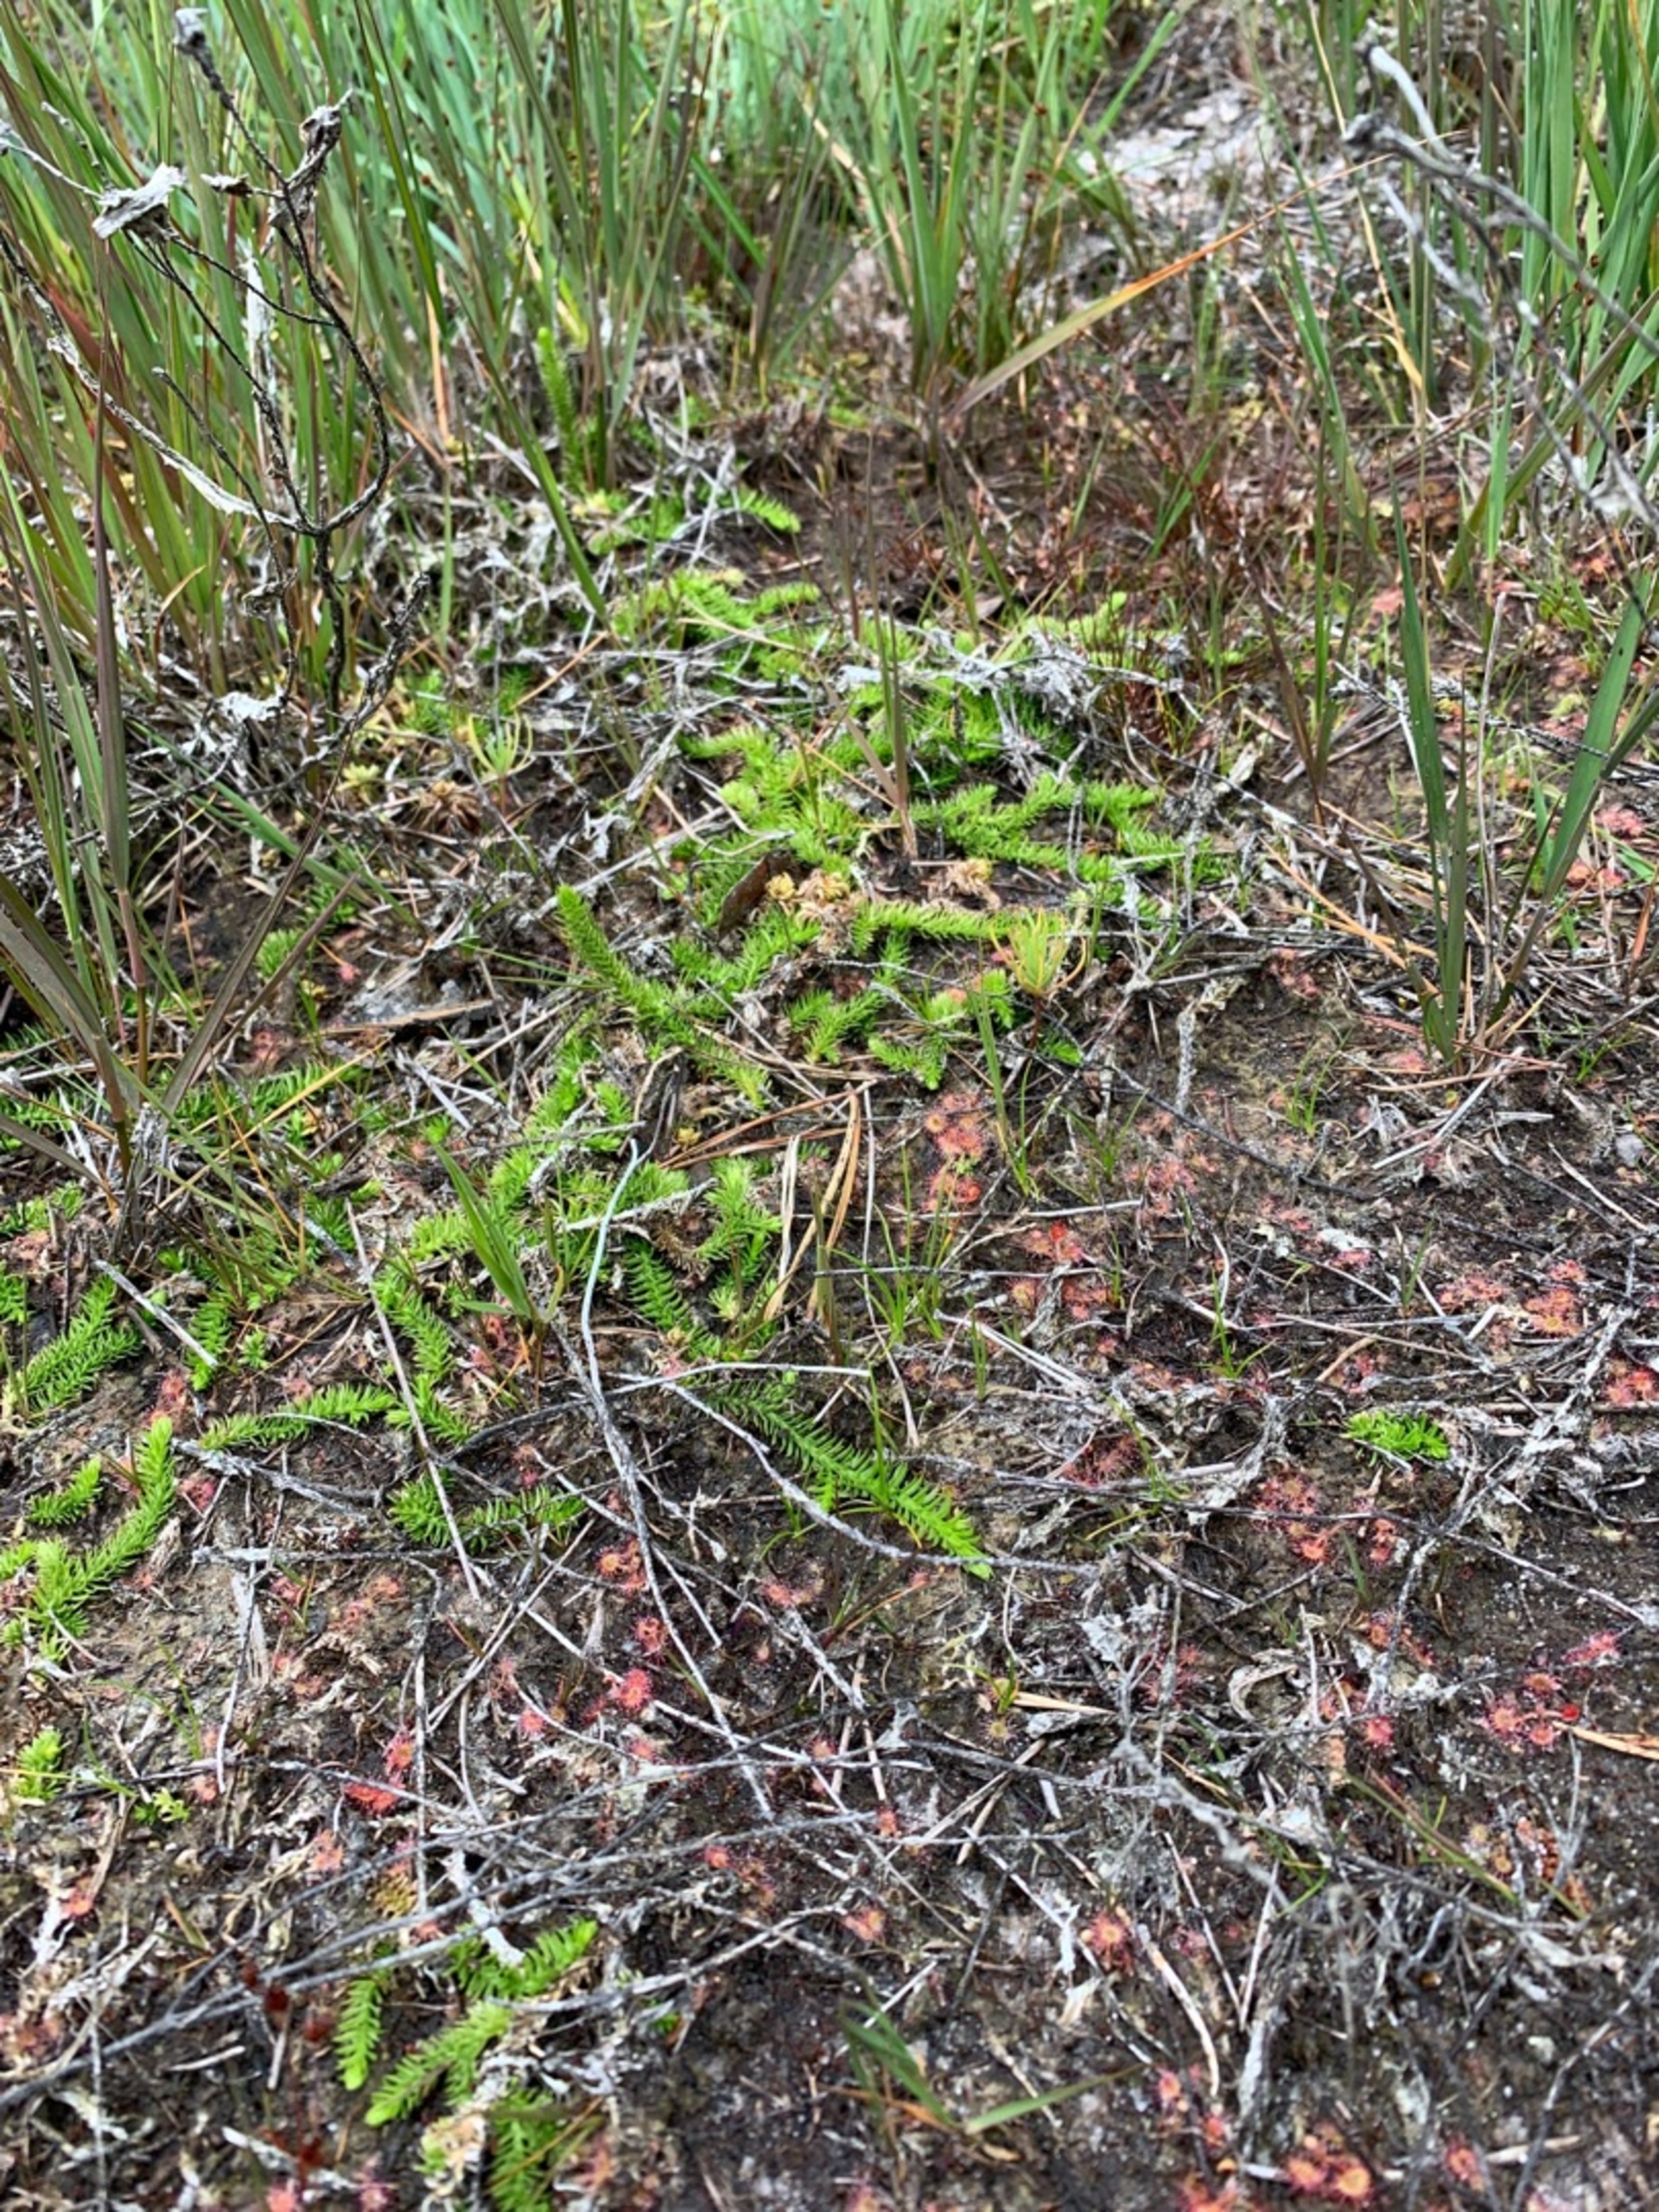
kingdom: Plantae
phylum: Tracheophyta
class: Lycopodiopsida
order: Lycopodiales
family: Lycopodiaceae
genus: Lycopodiella
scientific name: Lycopodiella inundata
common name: Liden ulvefod
